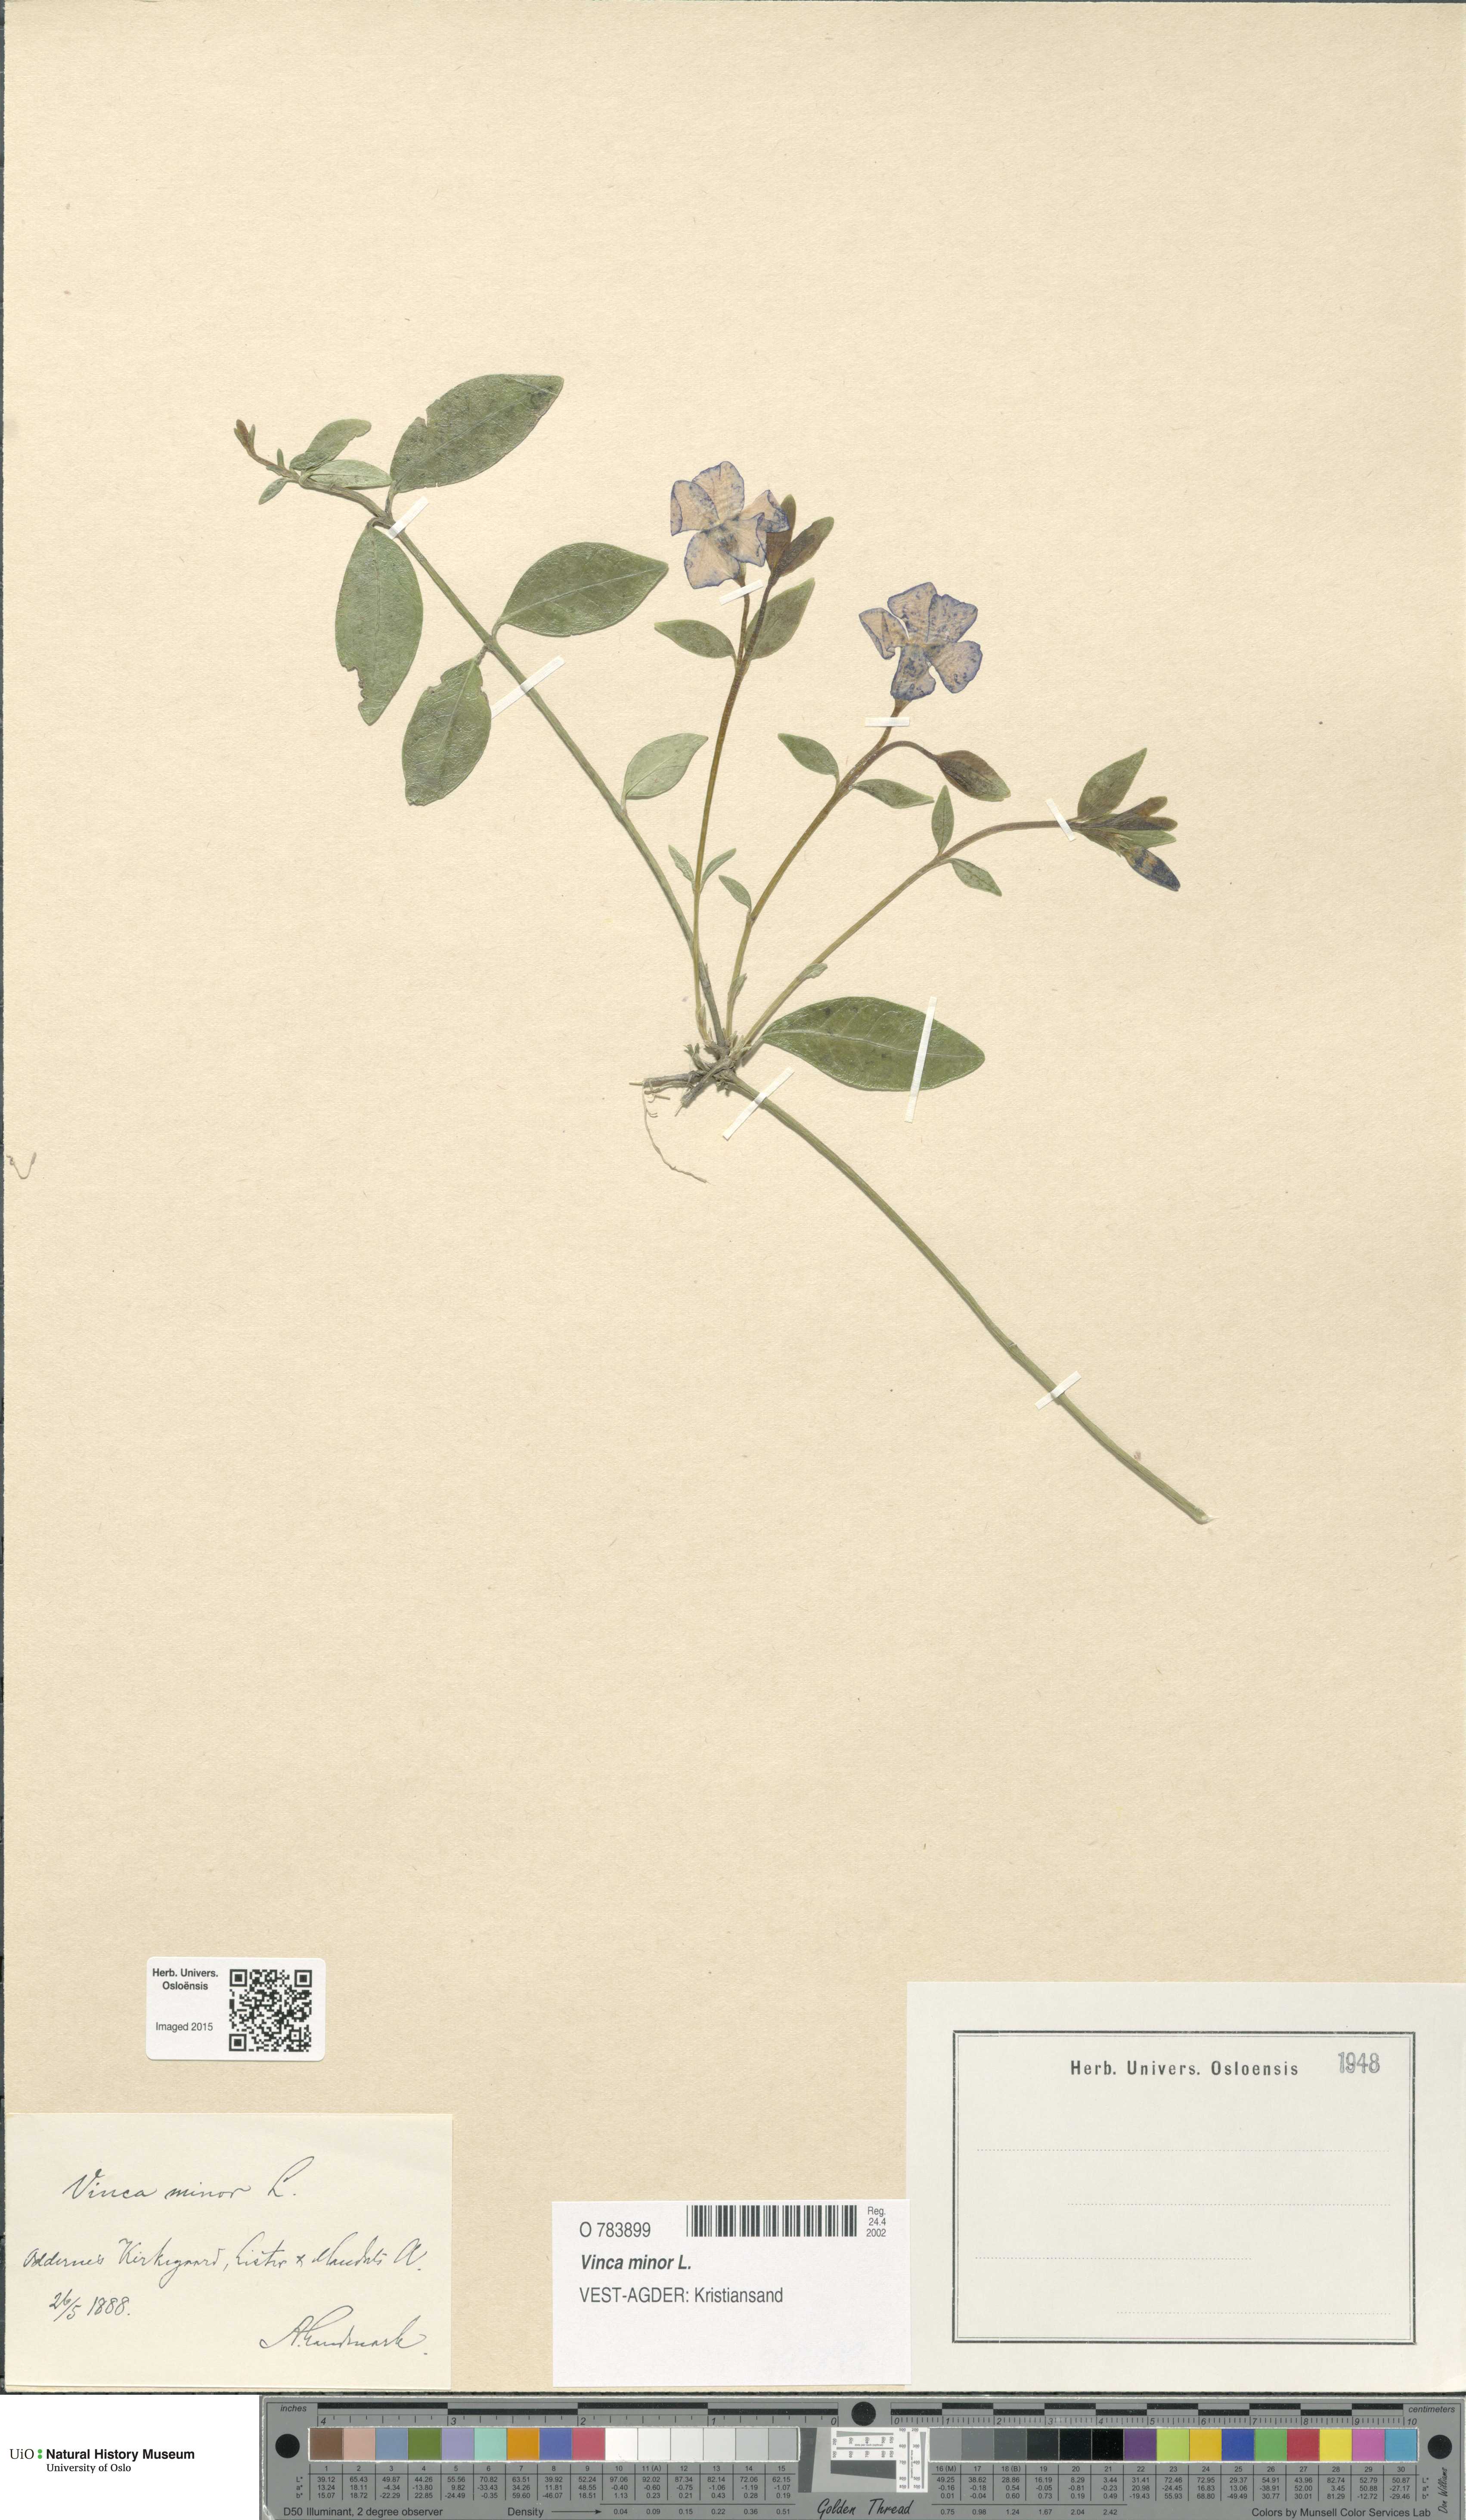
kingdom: Plantae
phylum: Tracheophyta
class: Magnoliopsida
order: Gentianales
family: Apocynaceae
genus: Vinca
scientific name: Vinca minor
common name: Lesser periwinkle
